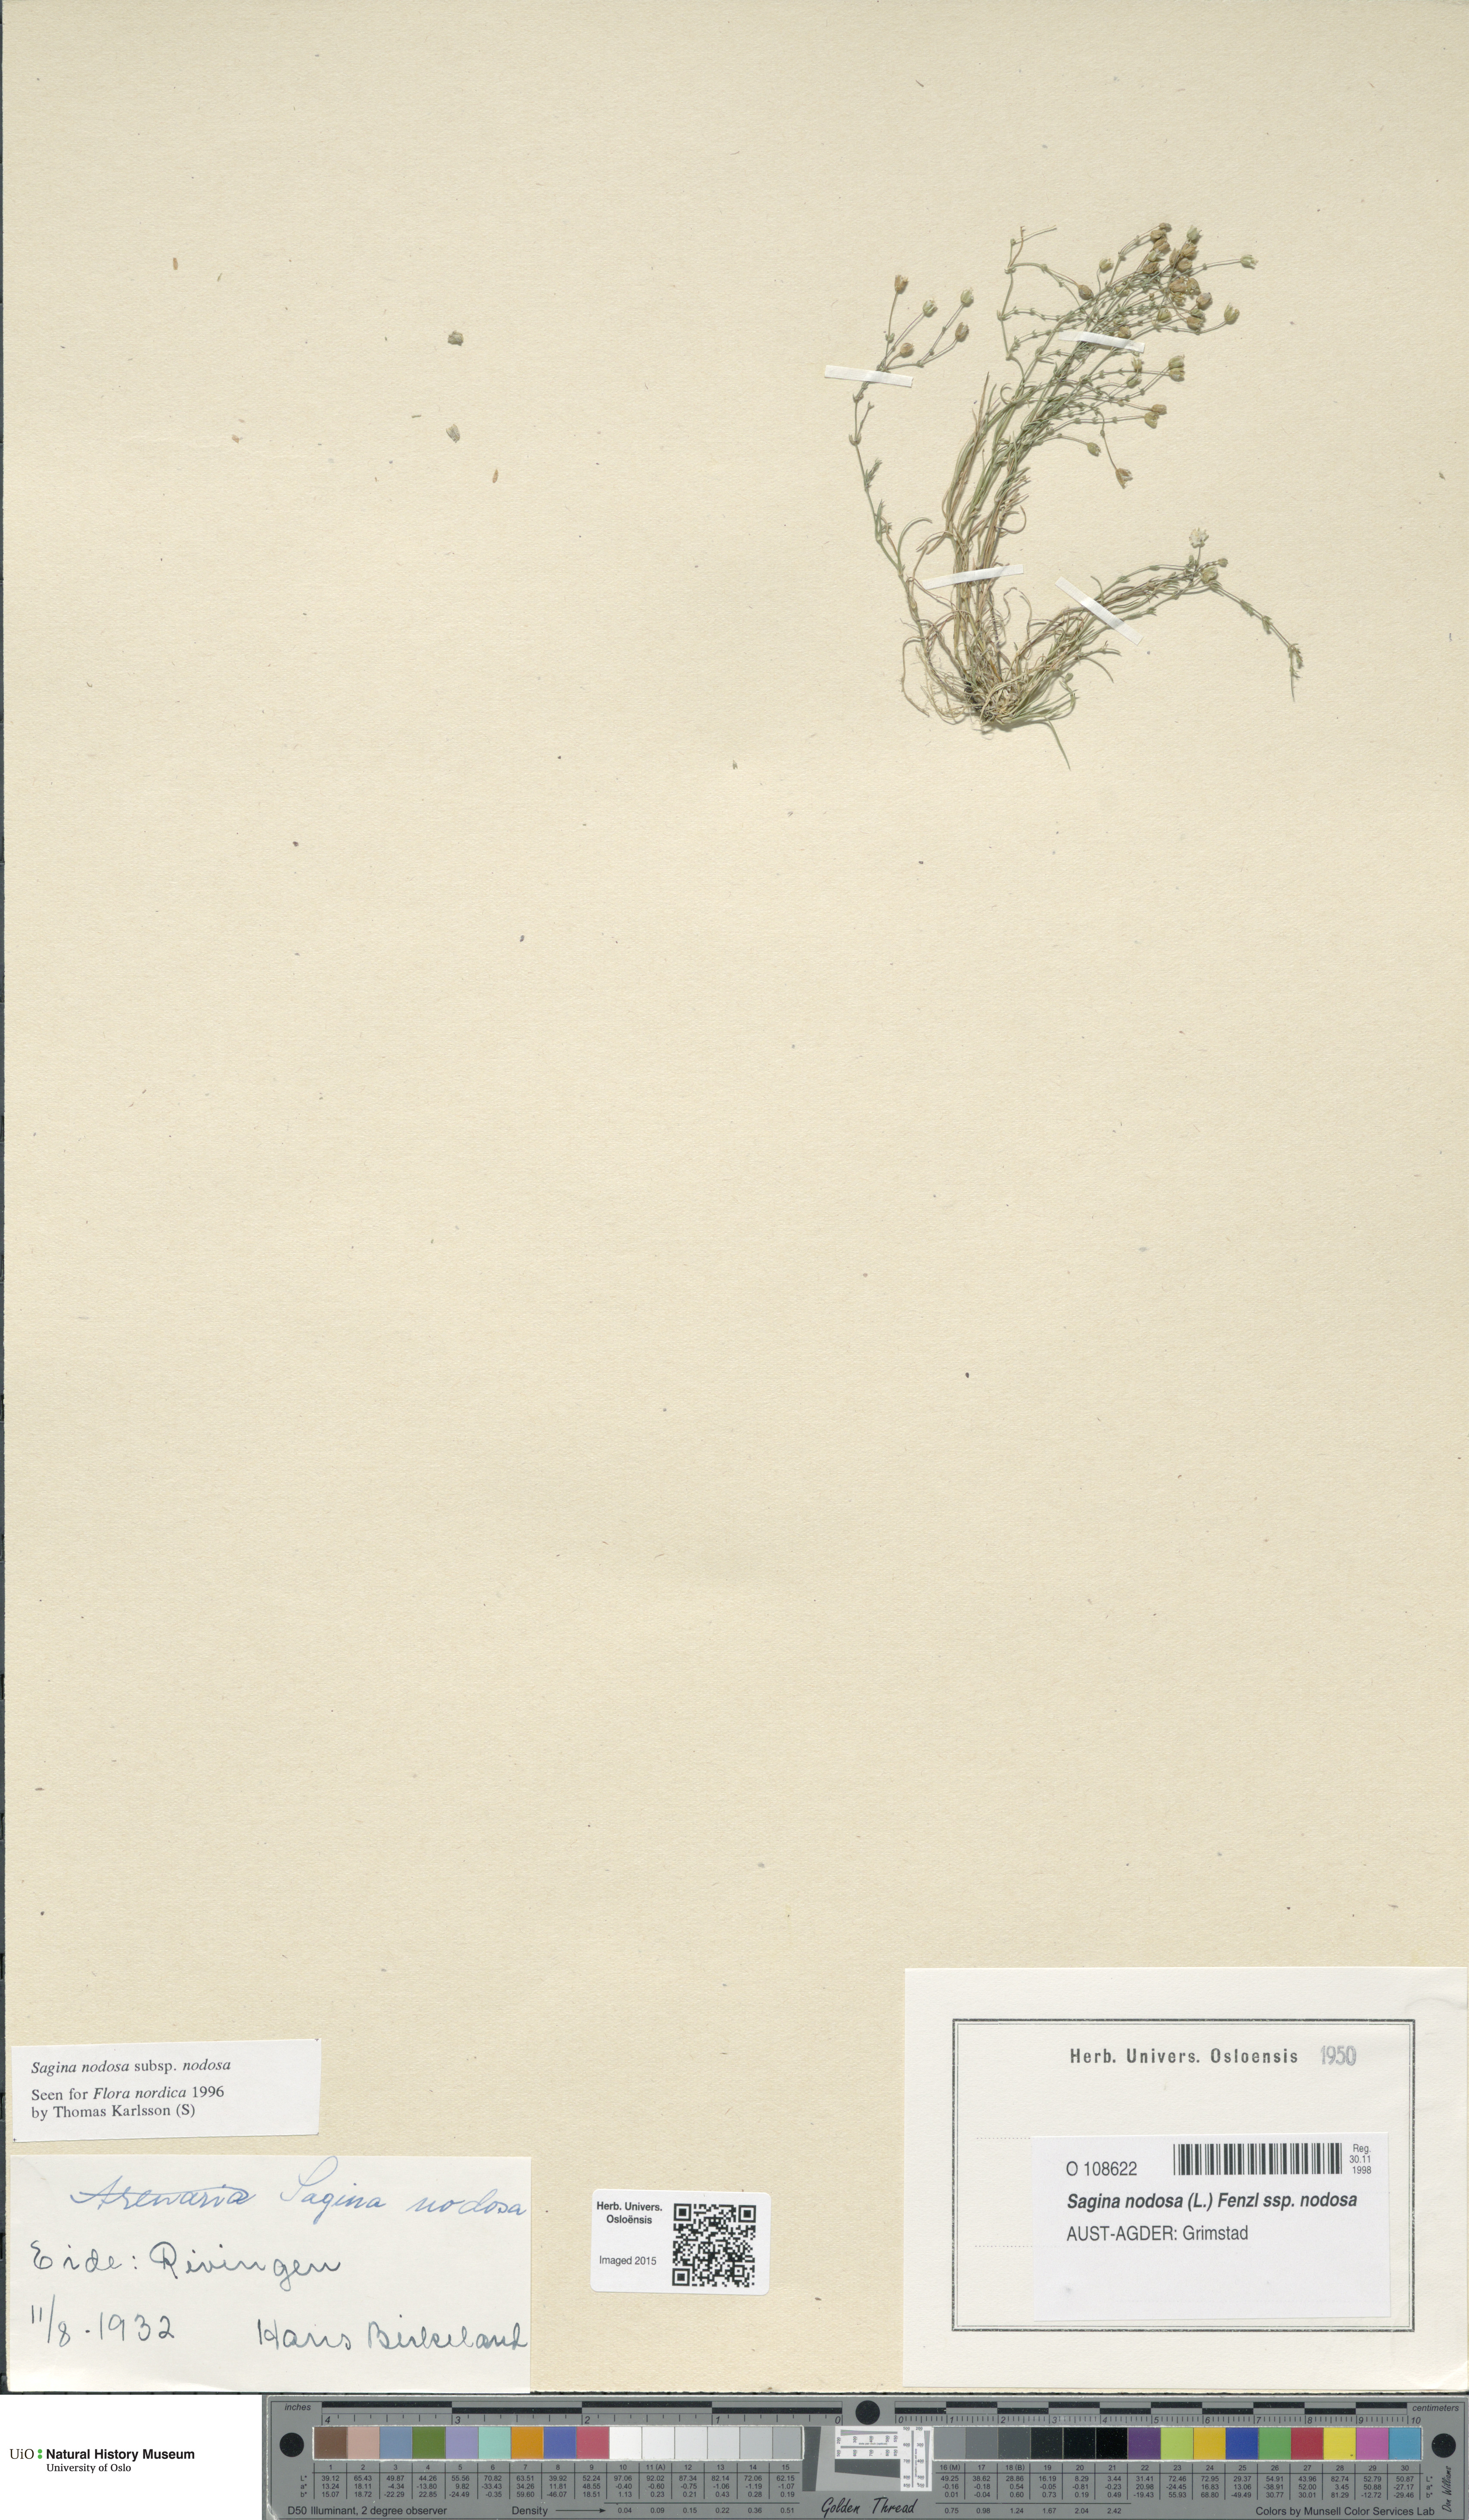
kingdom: Plantae
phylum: Tracheophyta
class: Magnoliopsida
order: Caryophyllales
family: Caryophyllaceae
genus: Sagina
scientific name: Sagina nodosa
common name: Knotted pearlwort
